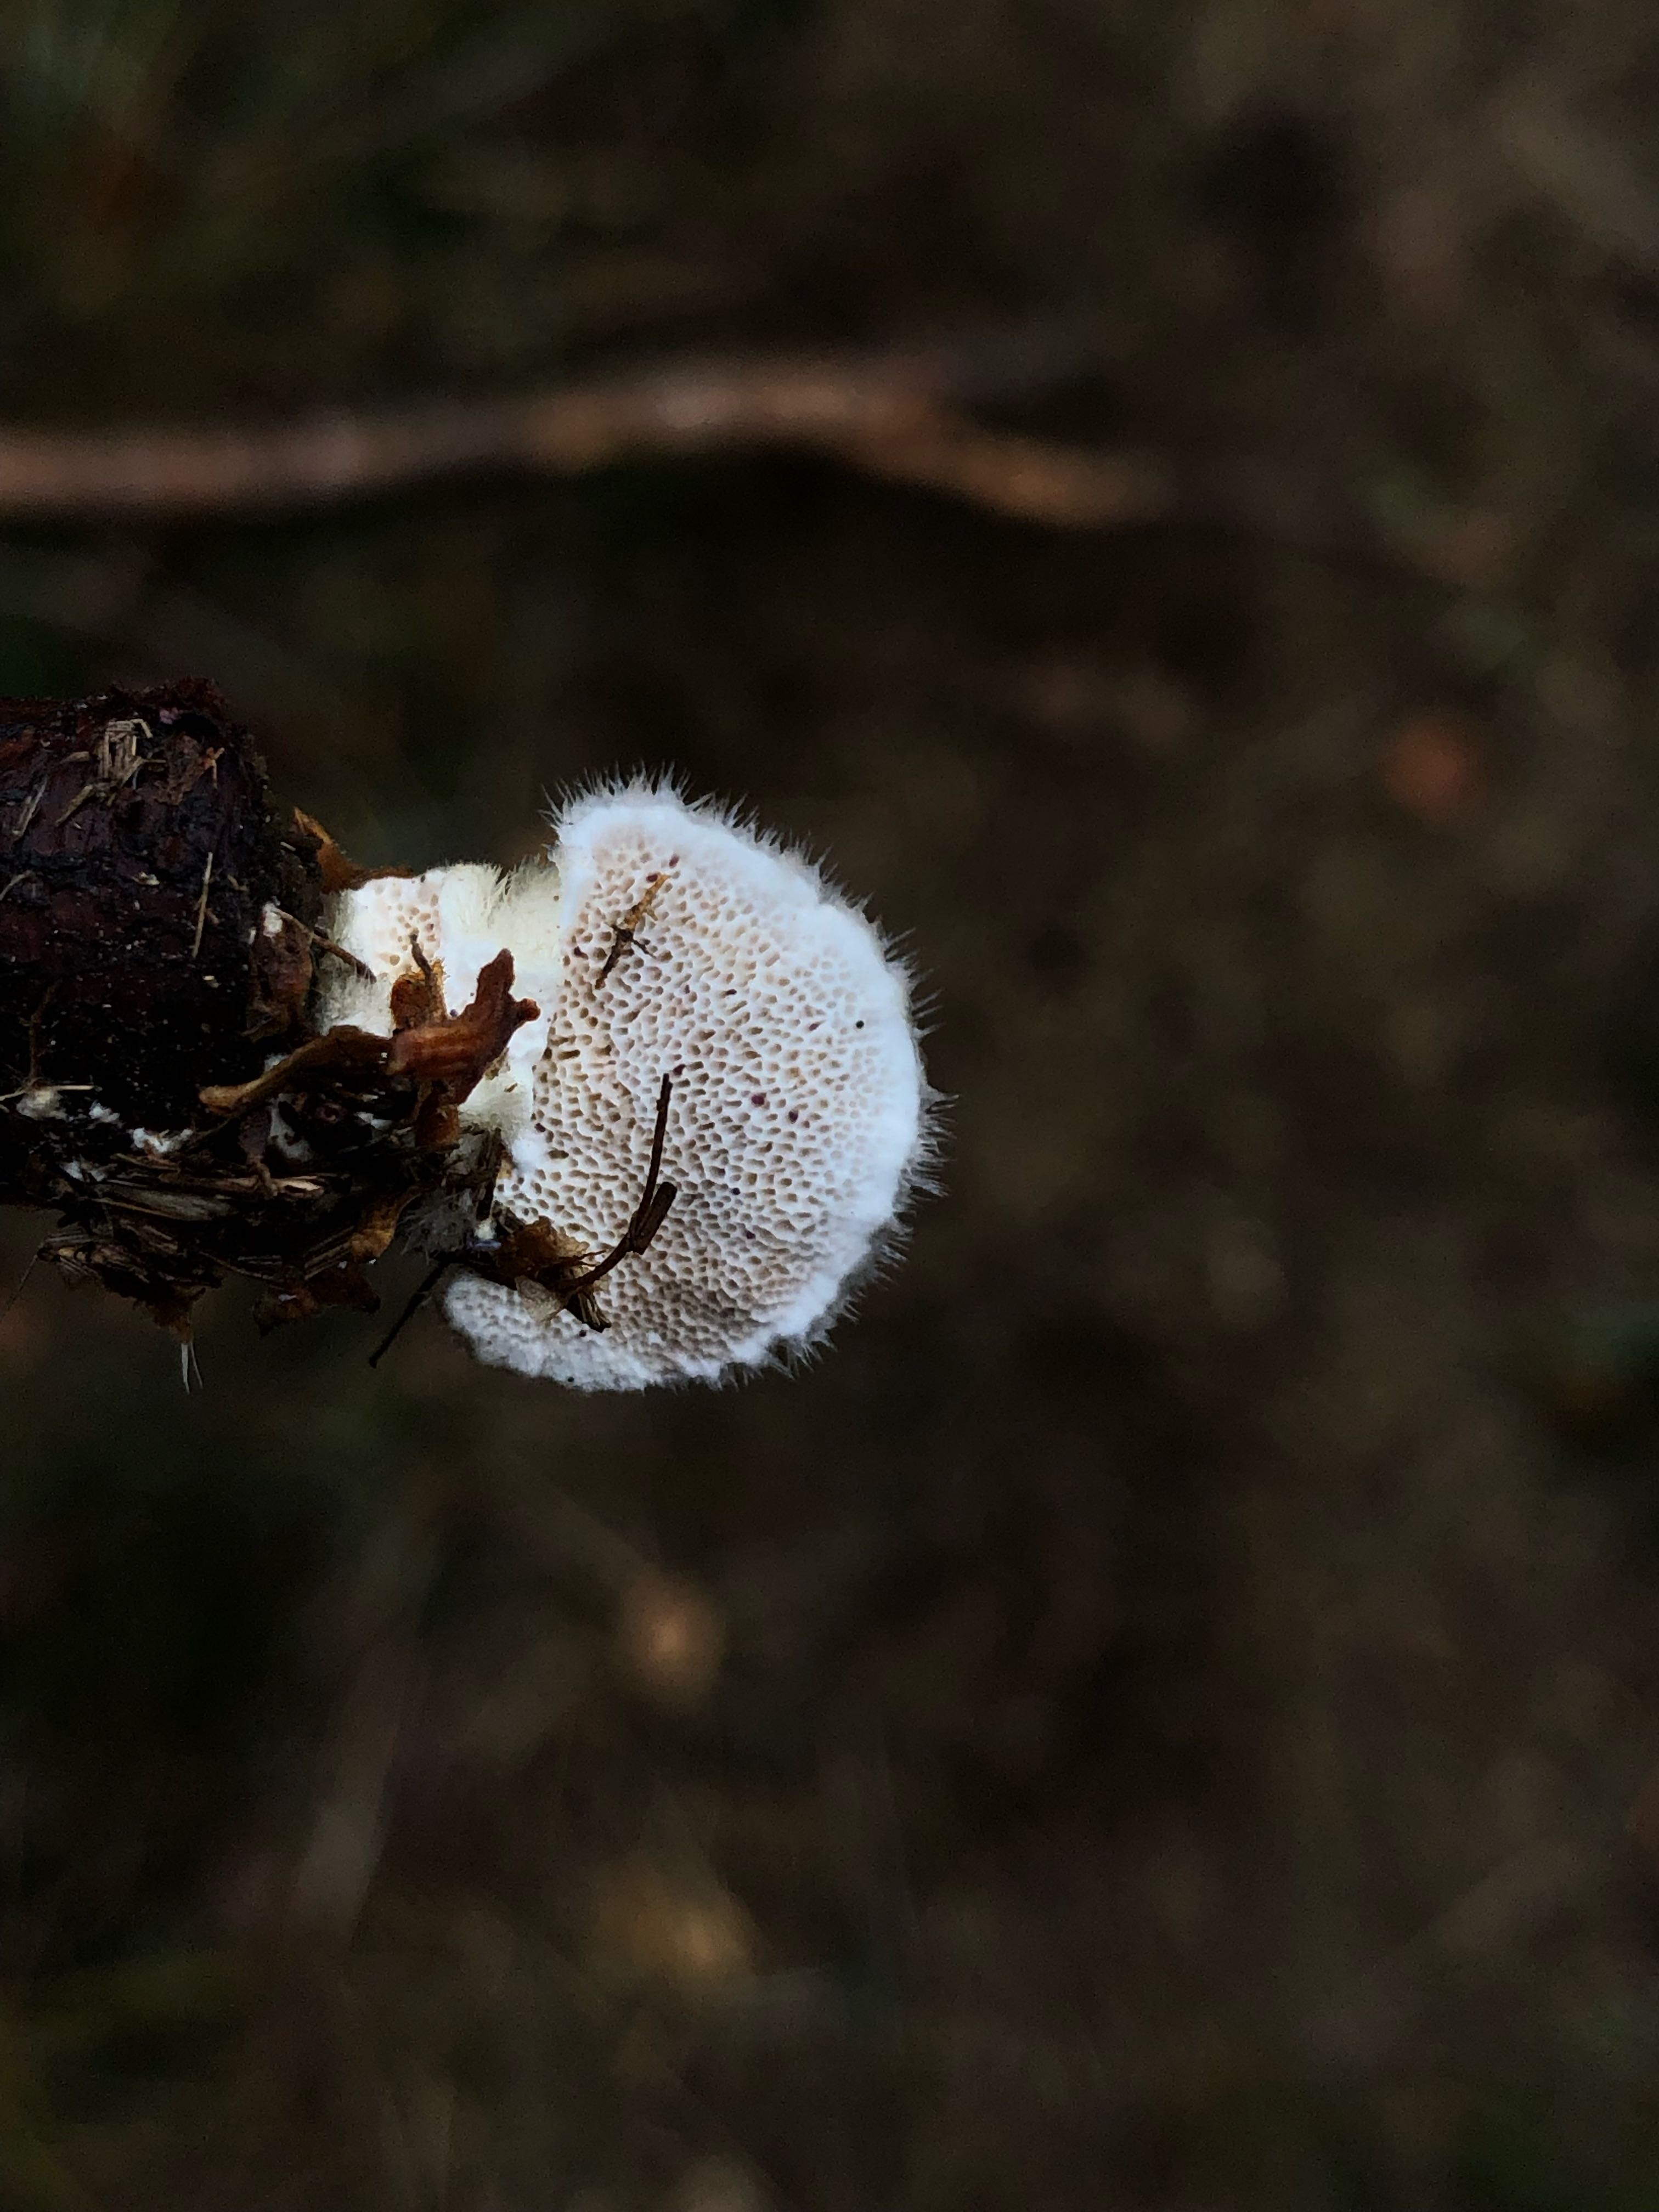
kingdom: Fungi
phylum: Basidiomycota
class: Agaricomycetes
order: Polyporales
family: Polyporaceae
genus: Trametes
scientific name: Trametes hirsuta
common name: håret læderporesvamp
